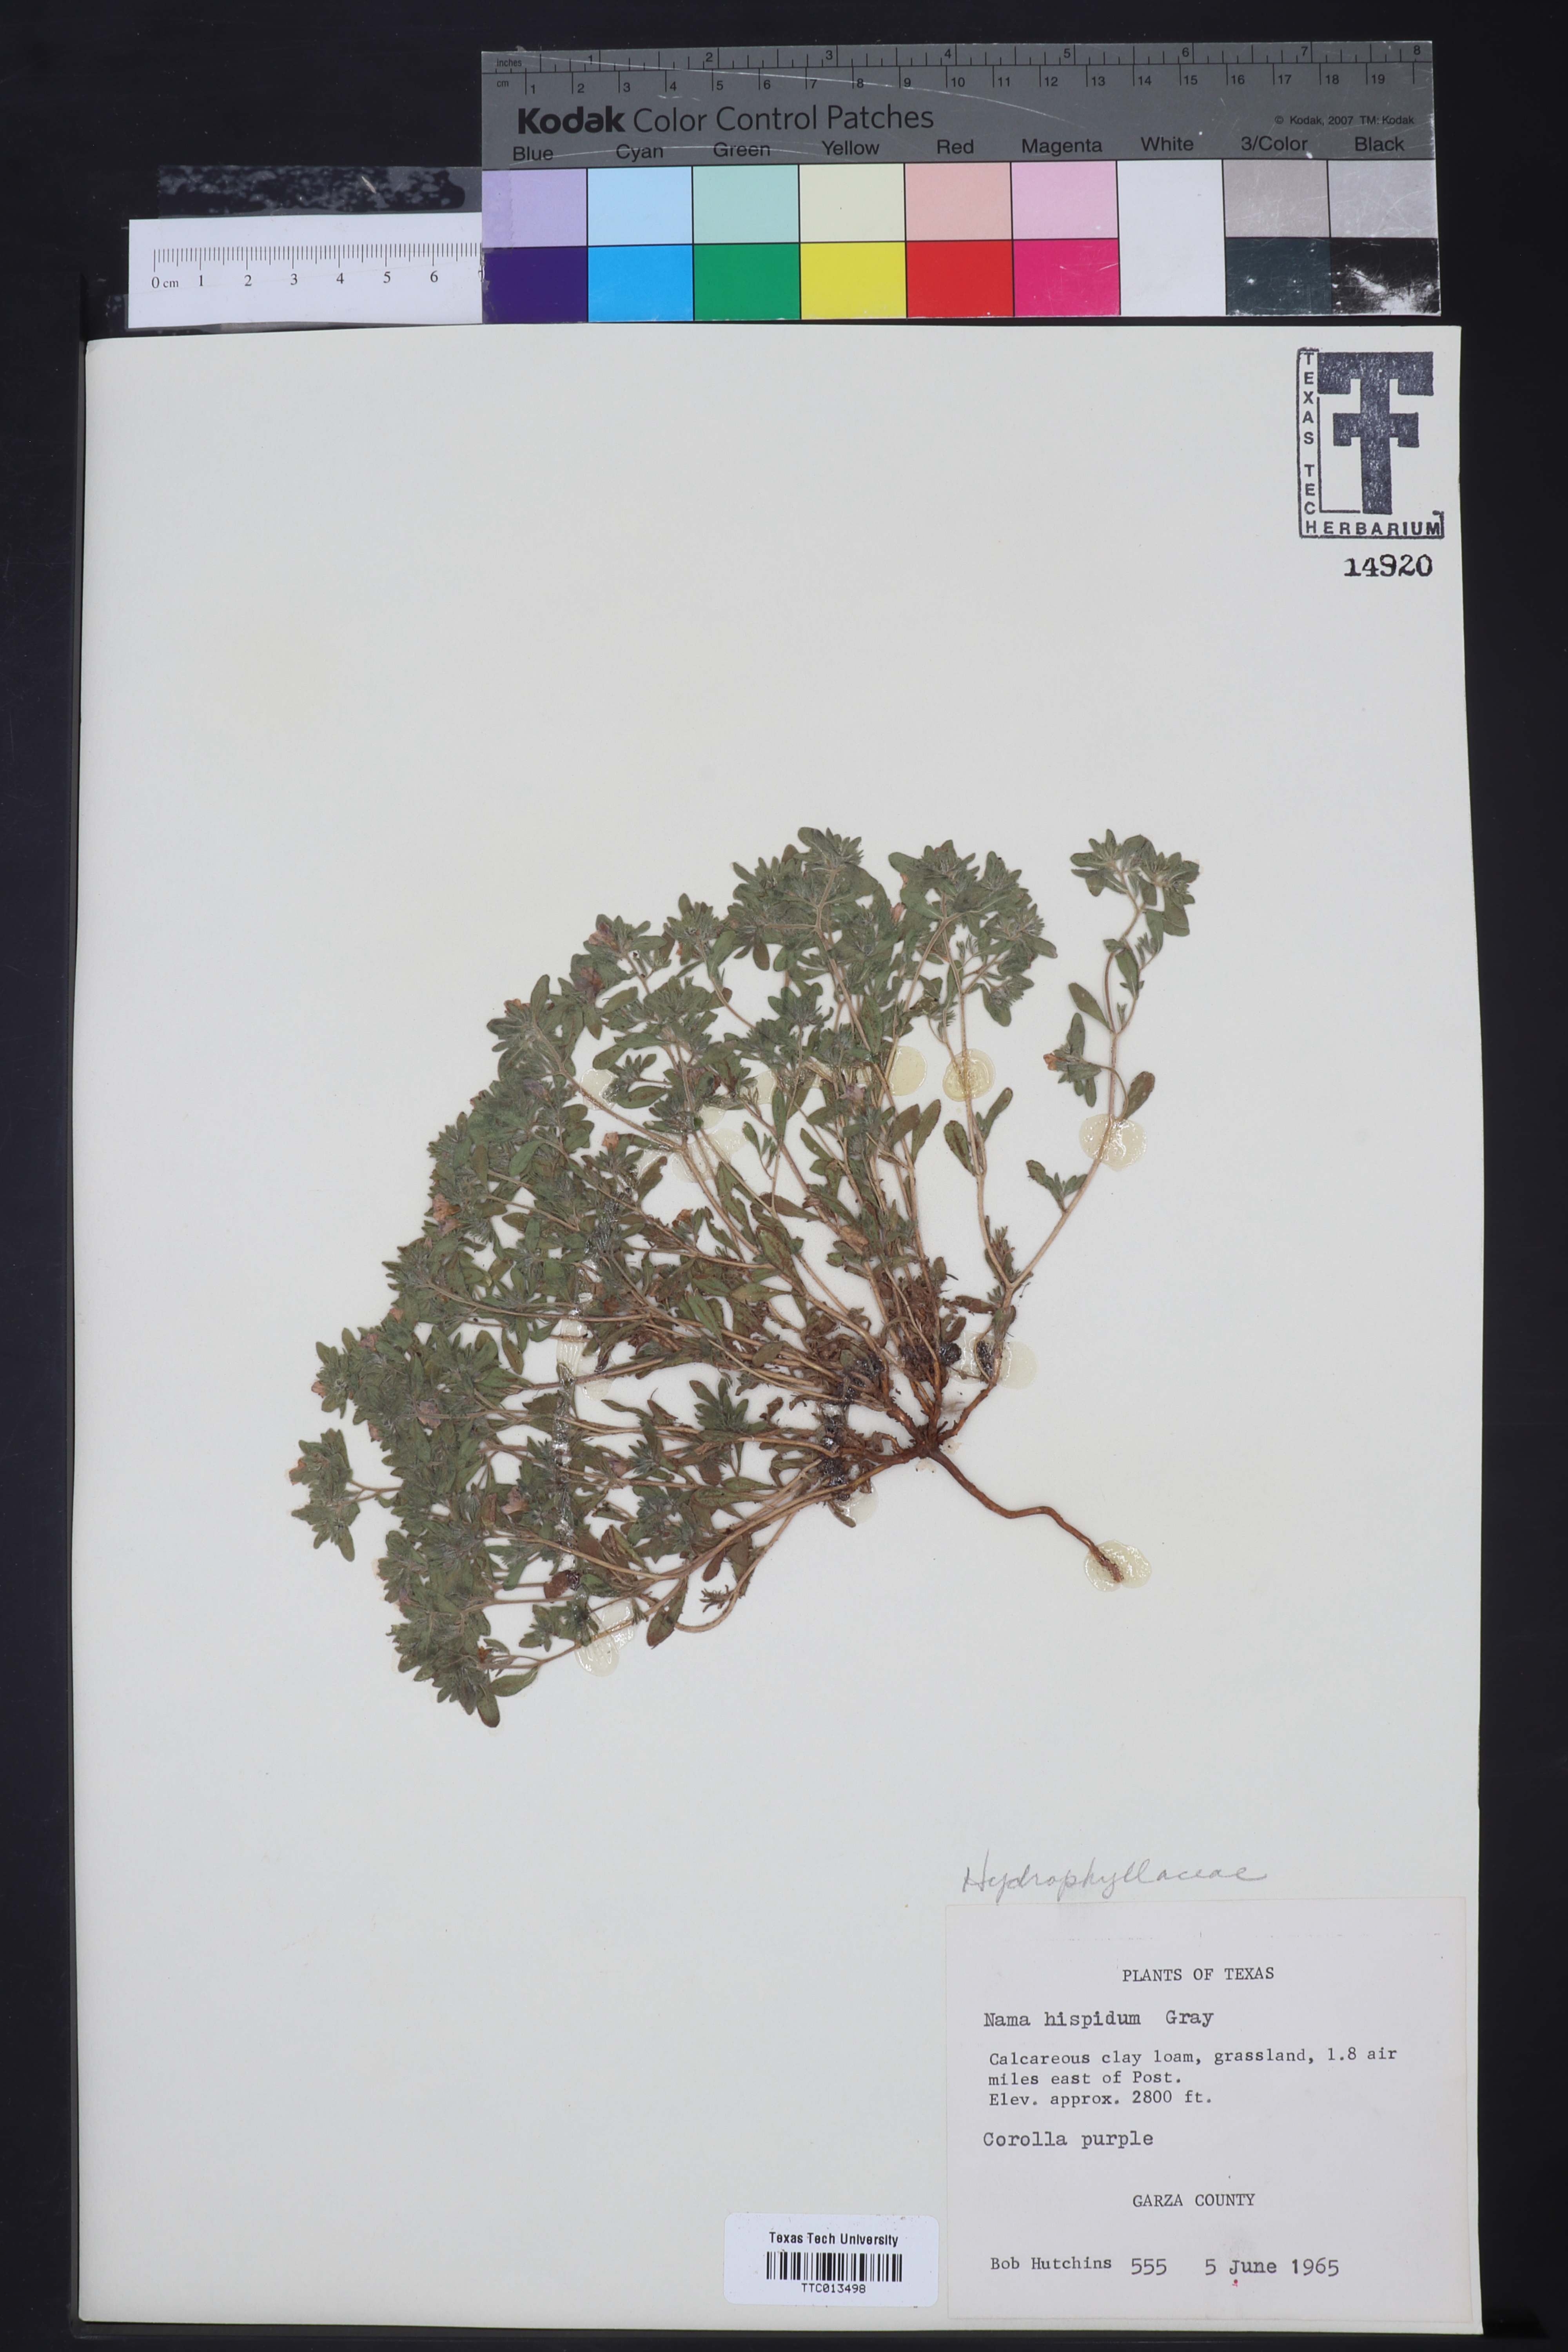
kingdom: Plantae
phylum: Tracheophyta
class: Magnoliopsida
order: Boraginales
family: Namaceae
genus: Nama
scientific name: Nama hispida
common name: Bristly nama
